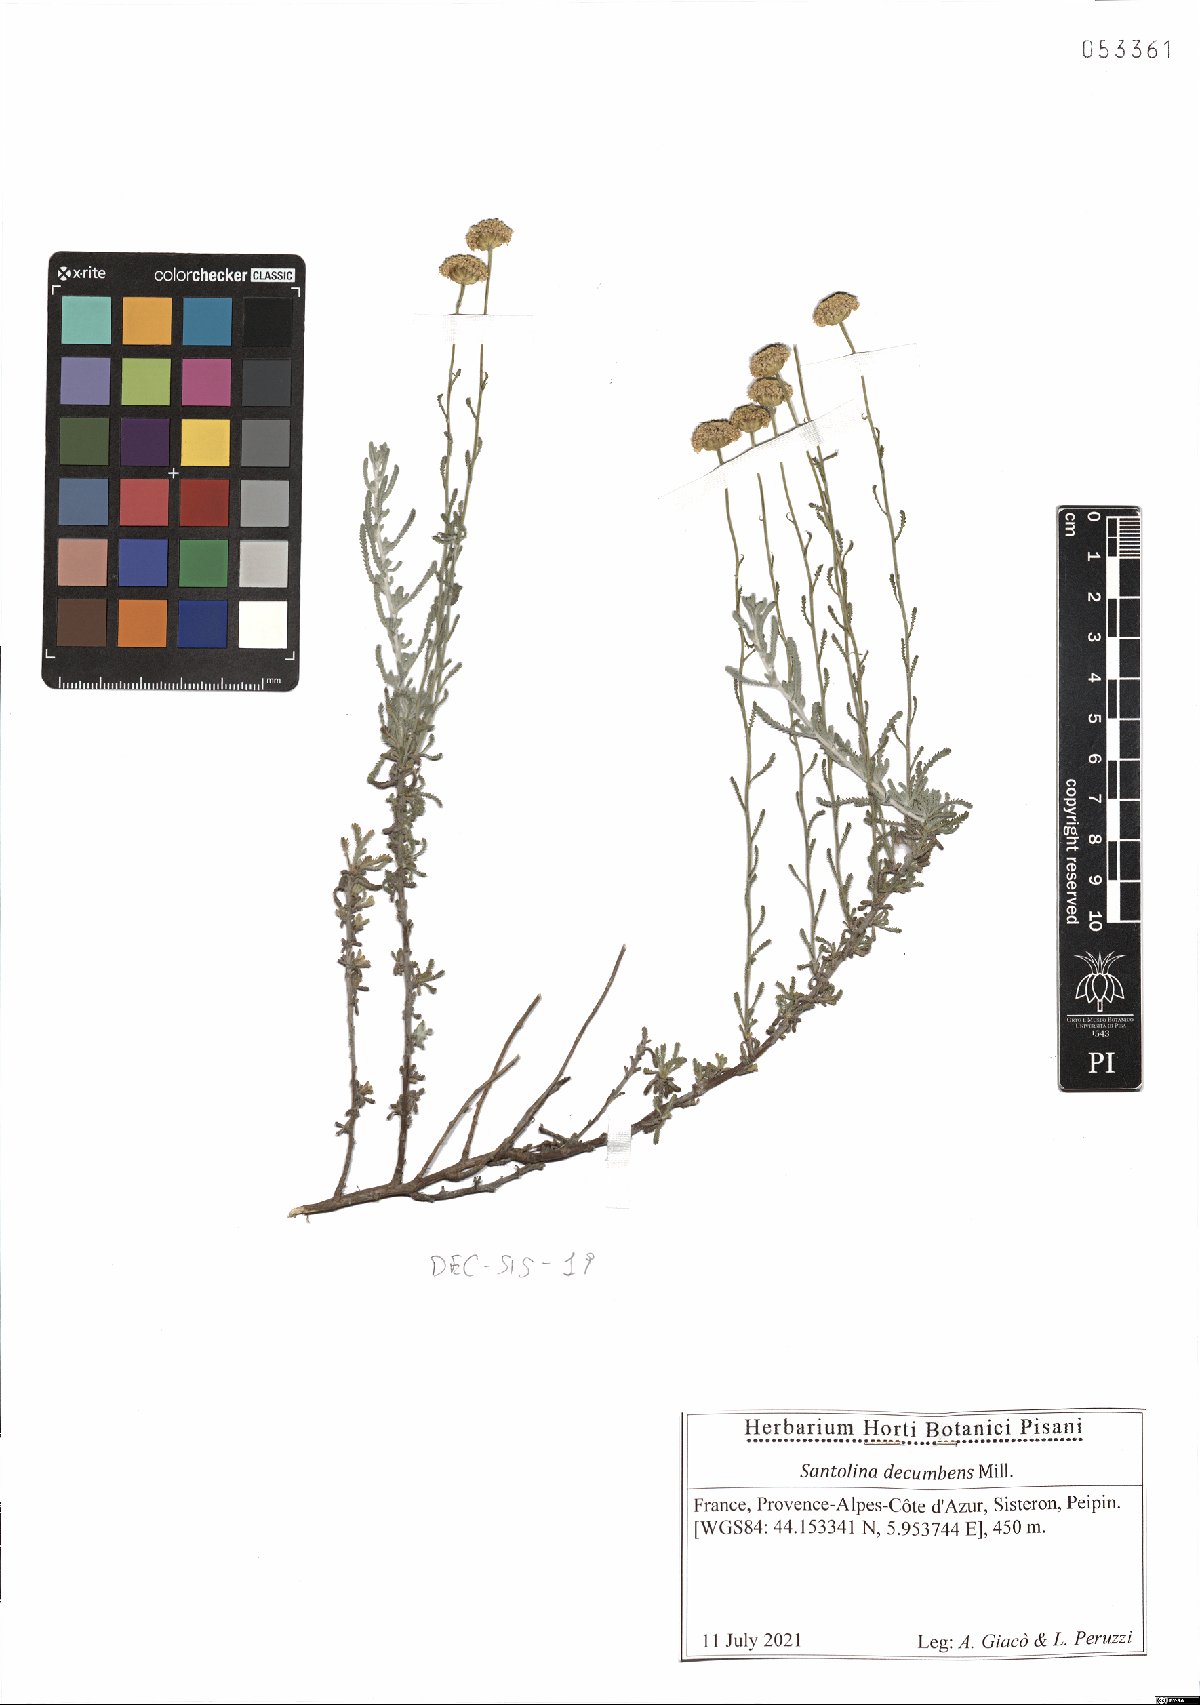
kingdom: Plantae
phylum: Tracheophyta
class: Magnoliopsida
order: Asterales
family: Asteraceae
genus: Santolina
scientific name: Santolina decumbens
